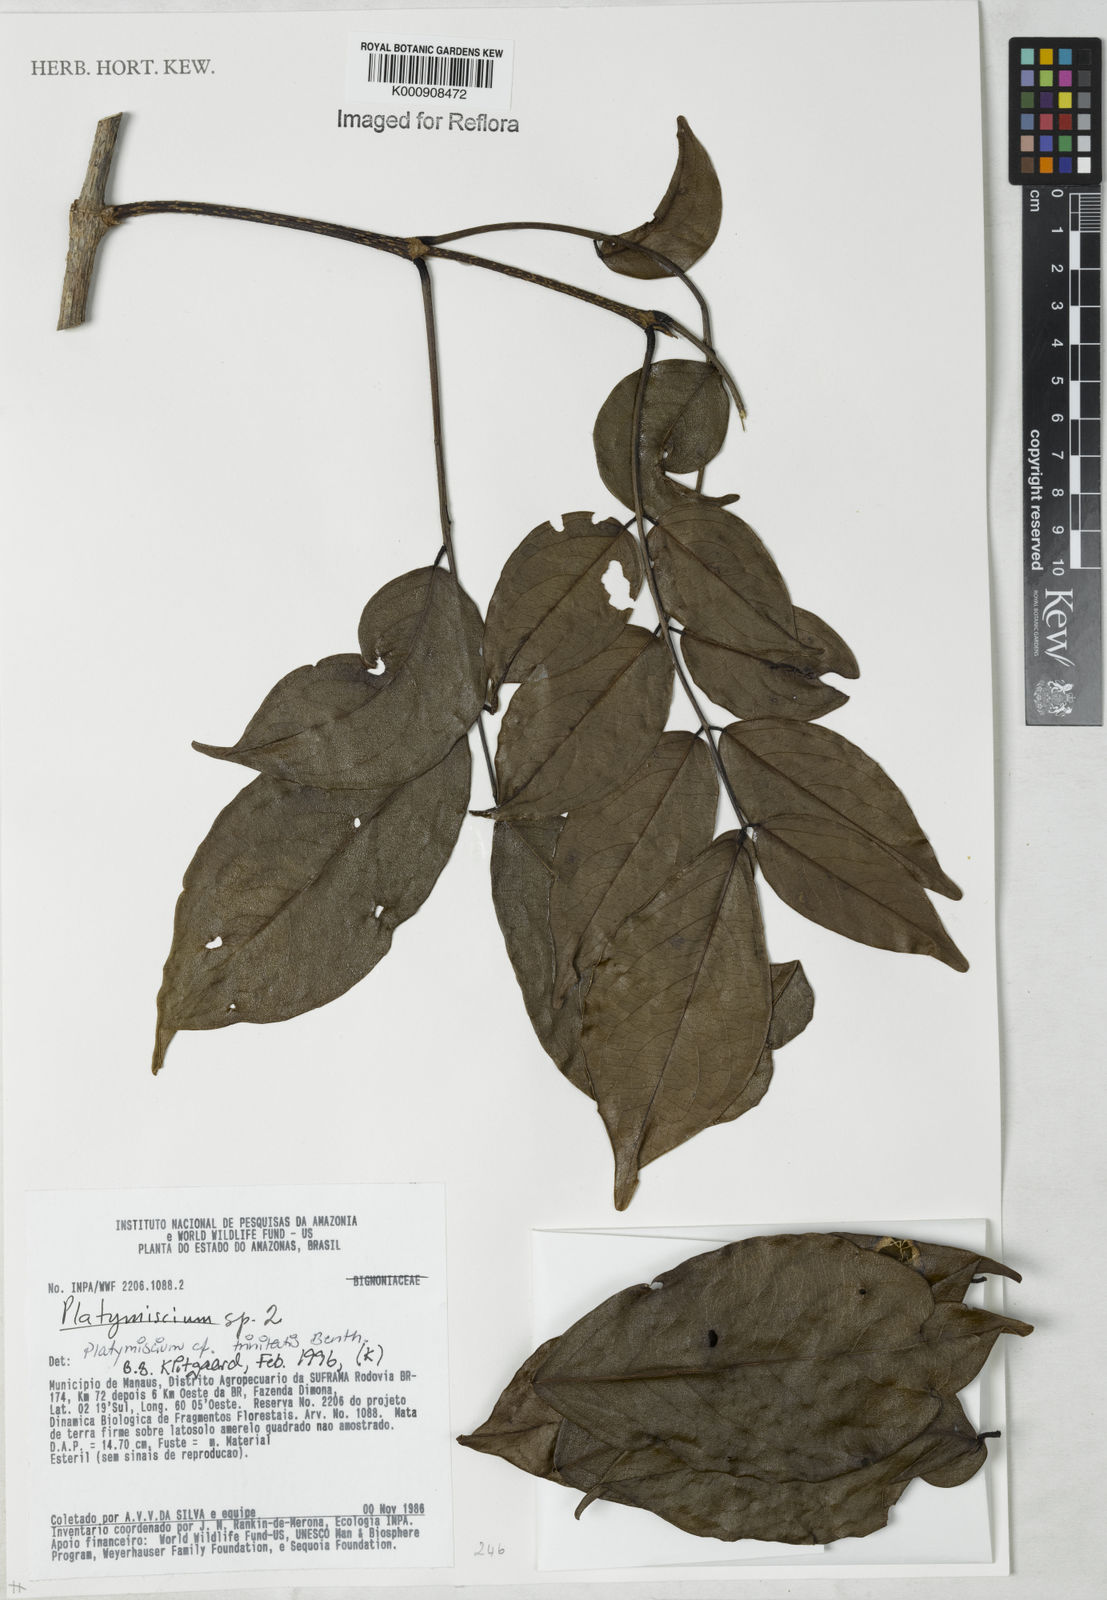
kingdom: Plantae
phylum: Tracheophyta
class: Magnoliopsida
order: Fabales
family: Fabaceae
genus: Platymiscium
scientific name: Platymiscium trinitatis
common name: Trinidad macawood
